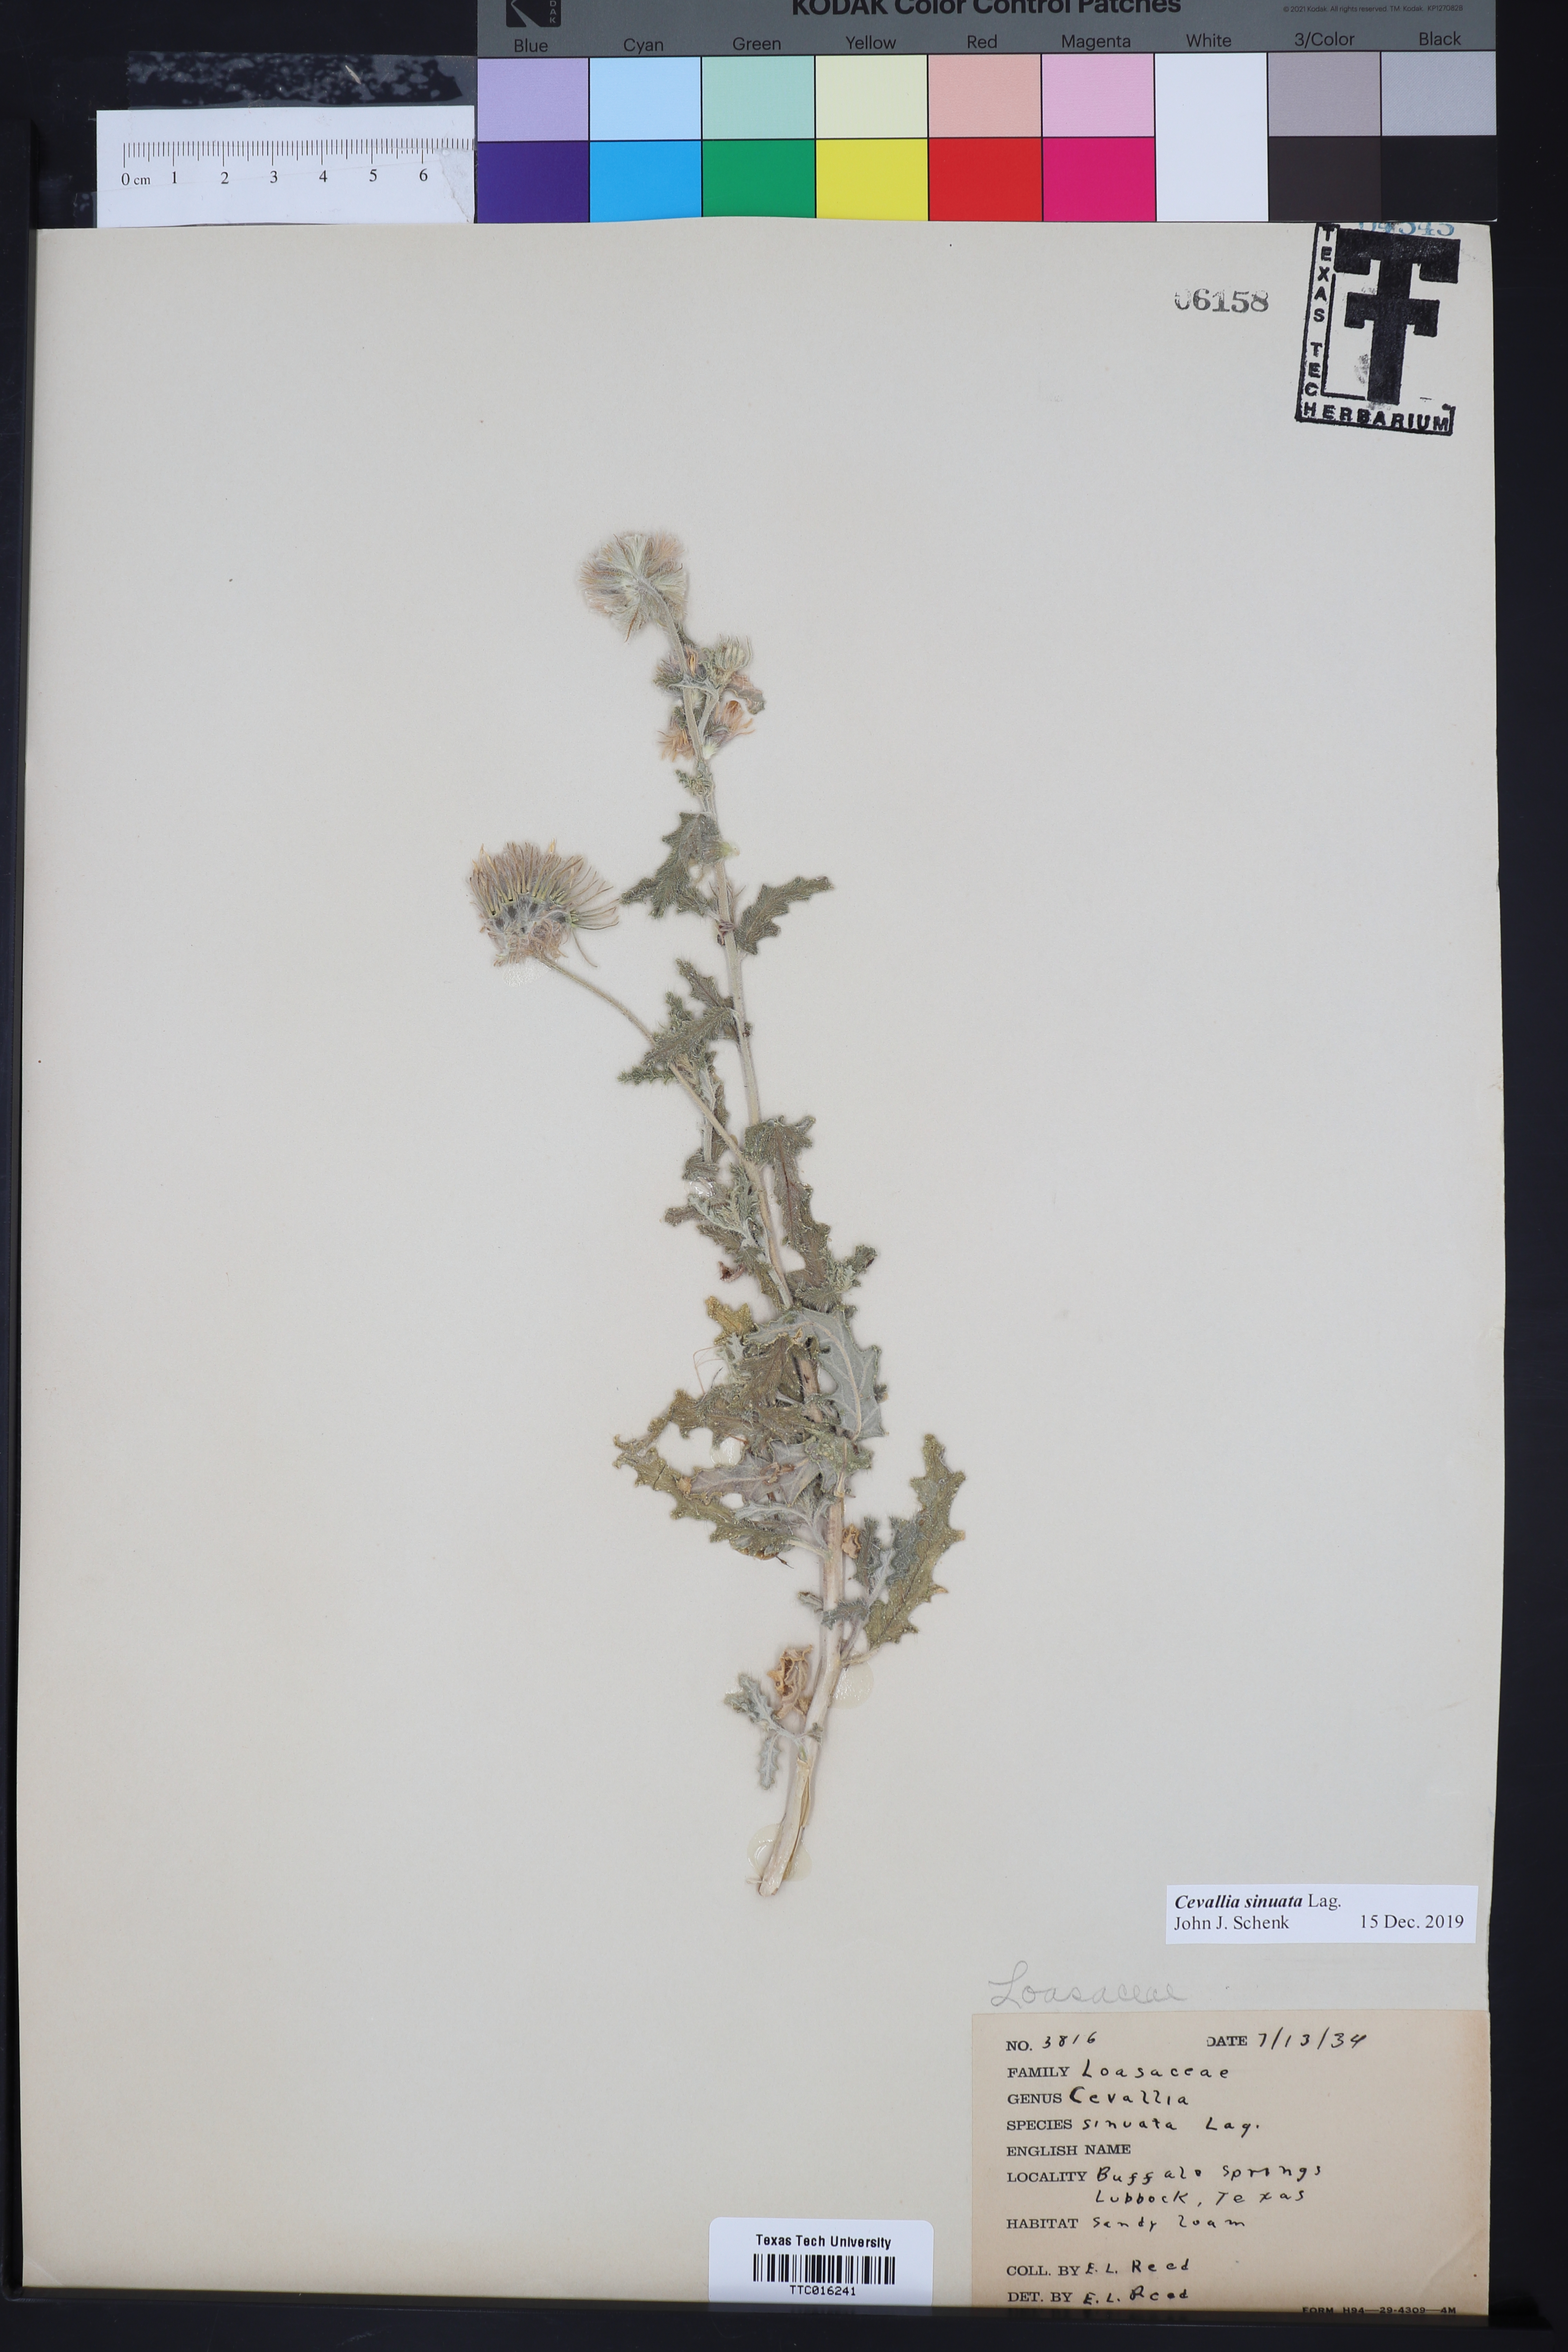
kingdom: Plantae
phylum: Tracheophyta
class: Magnoliopsida
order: Cornales
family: Loasaceae
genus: Cevallia
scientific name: Cevallia sinuata
